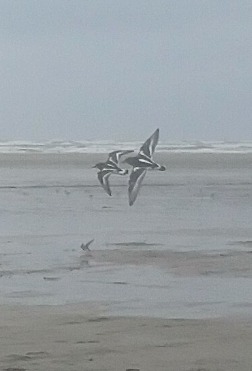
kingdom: Animalia
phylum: Chordata
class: Aves
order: Charadriiformes
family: Scolopacidae
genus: Arenaria
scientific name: Arenaria interpres
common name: Stenvender
